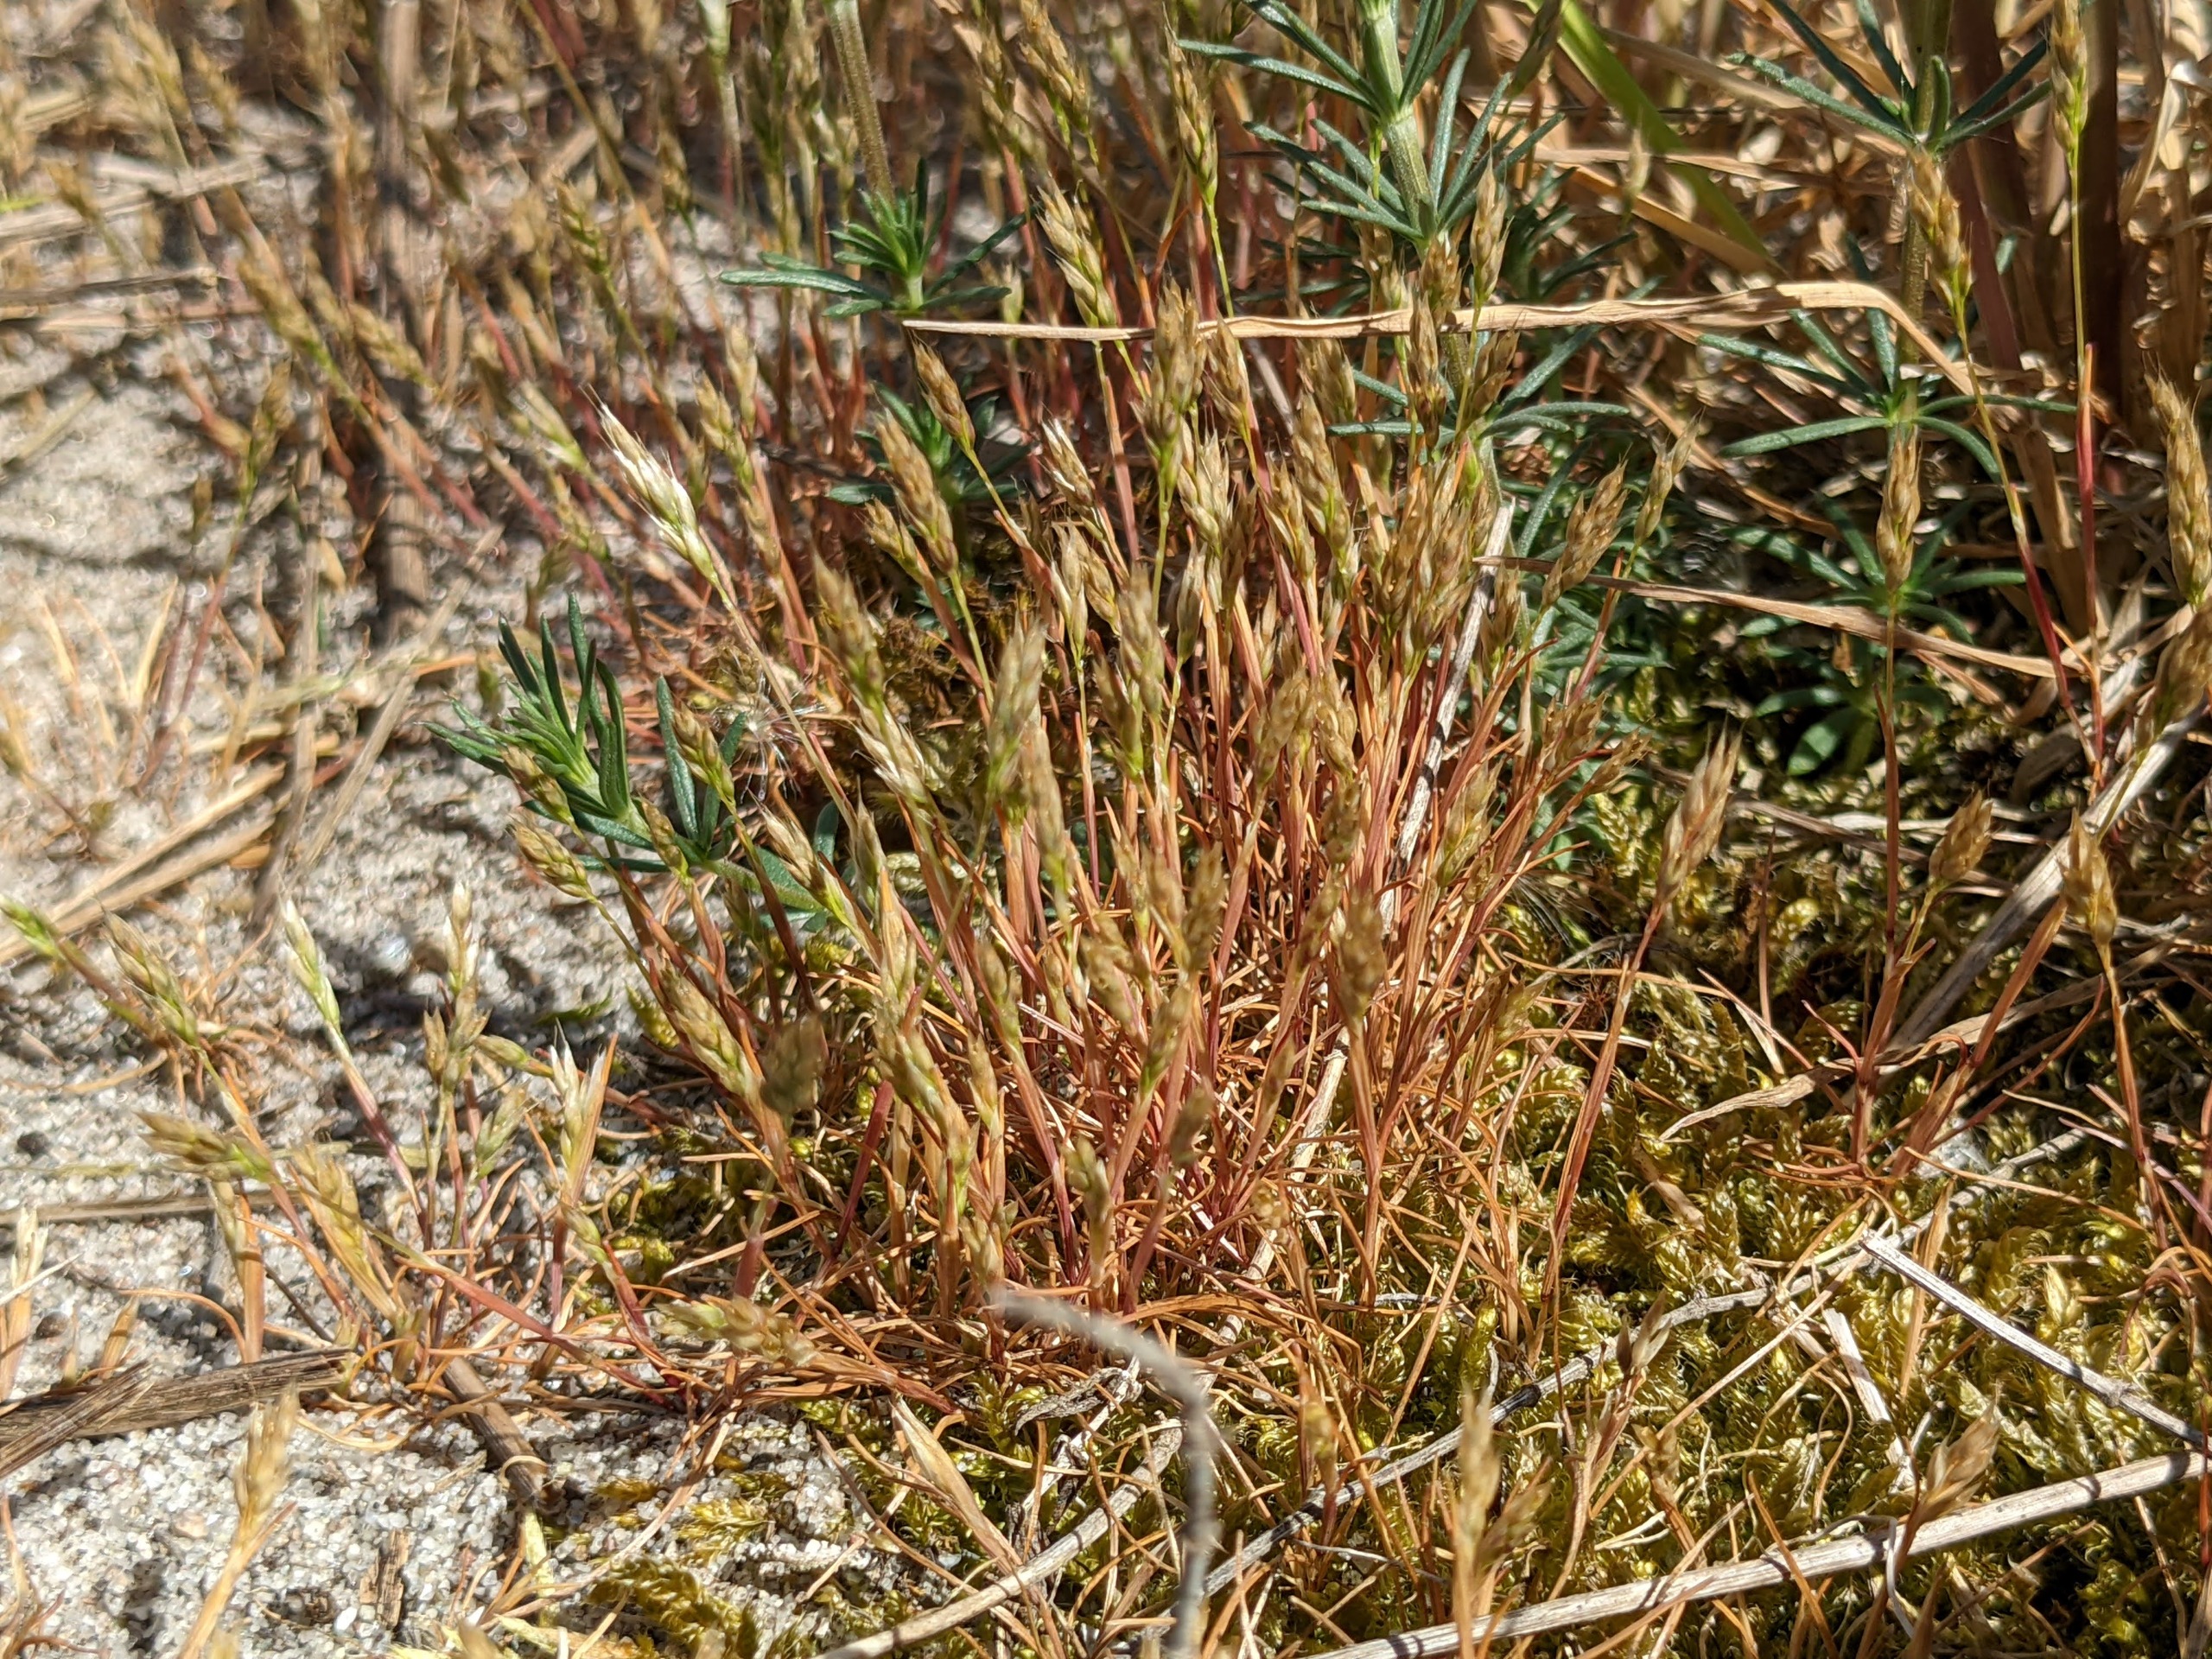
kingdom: Plantae
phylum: Tracheophyta
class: Liliopsida
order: Poales
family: Poaceae
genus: Aira
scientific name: Aira praecox
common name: Tidlig dværgbunke
